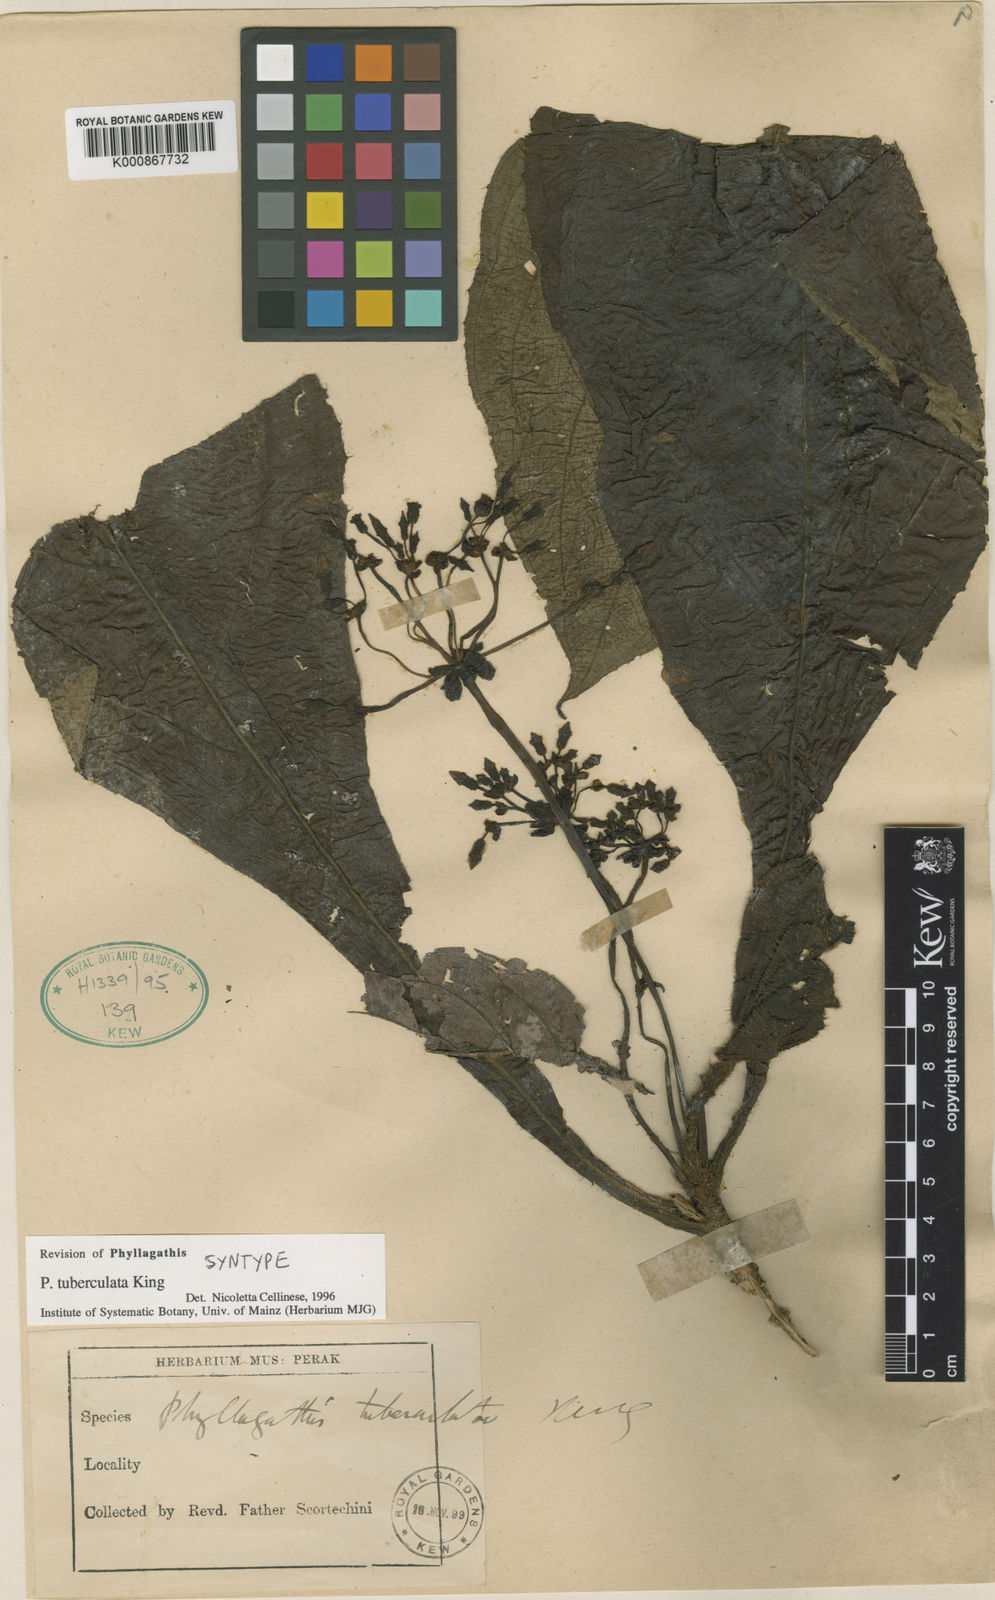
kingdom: Plantae
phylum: Tracheophyta
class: Magnoliopsida
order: Myrtales
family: Melastomataceae
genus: Phyllagathis
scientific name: Phyllagathis tuberculata
